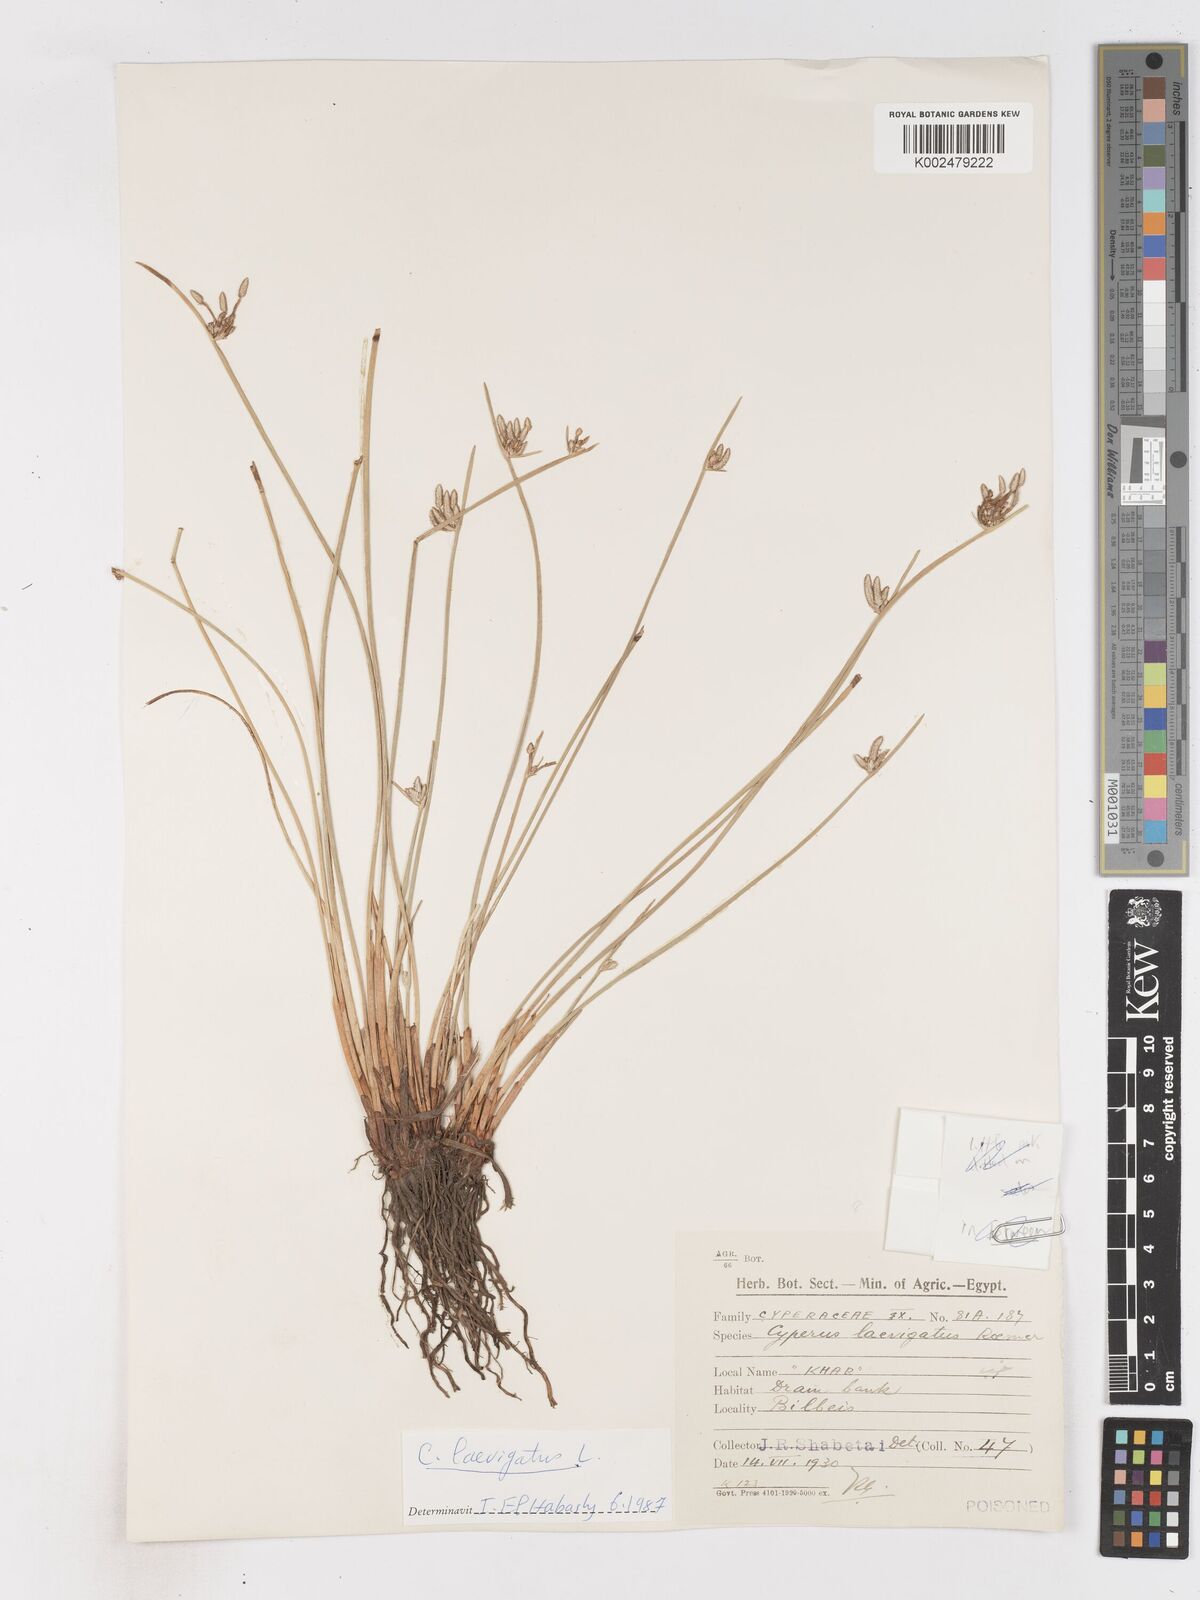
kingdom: Plantae
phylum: Tracheophyta
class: Liliopsida
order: Poales
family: Cyperaceae
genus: Cyperus
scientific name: Cyperus laevigatus
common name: Smooth flat sedge
